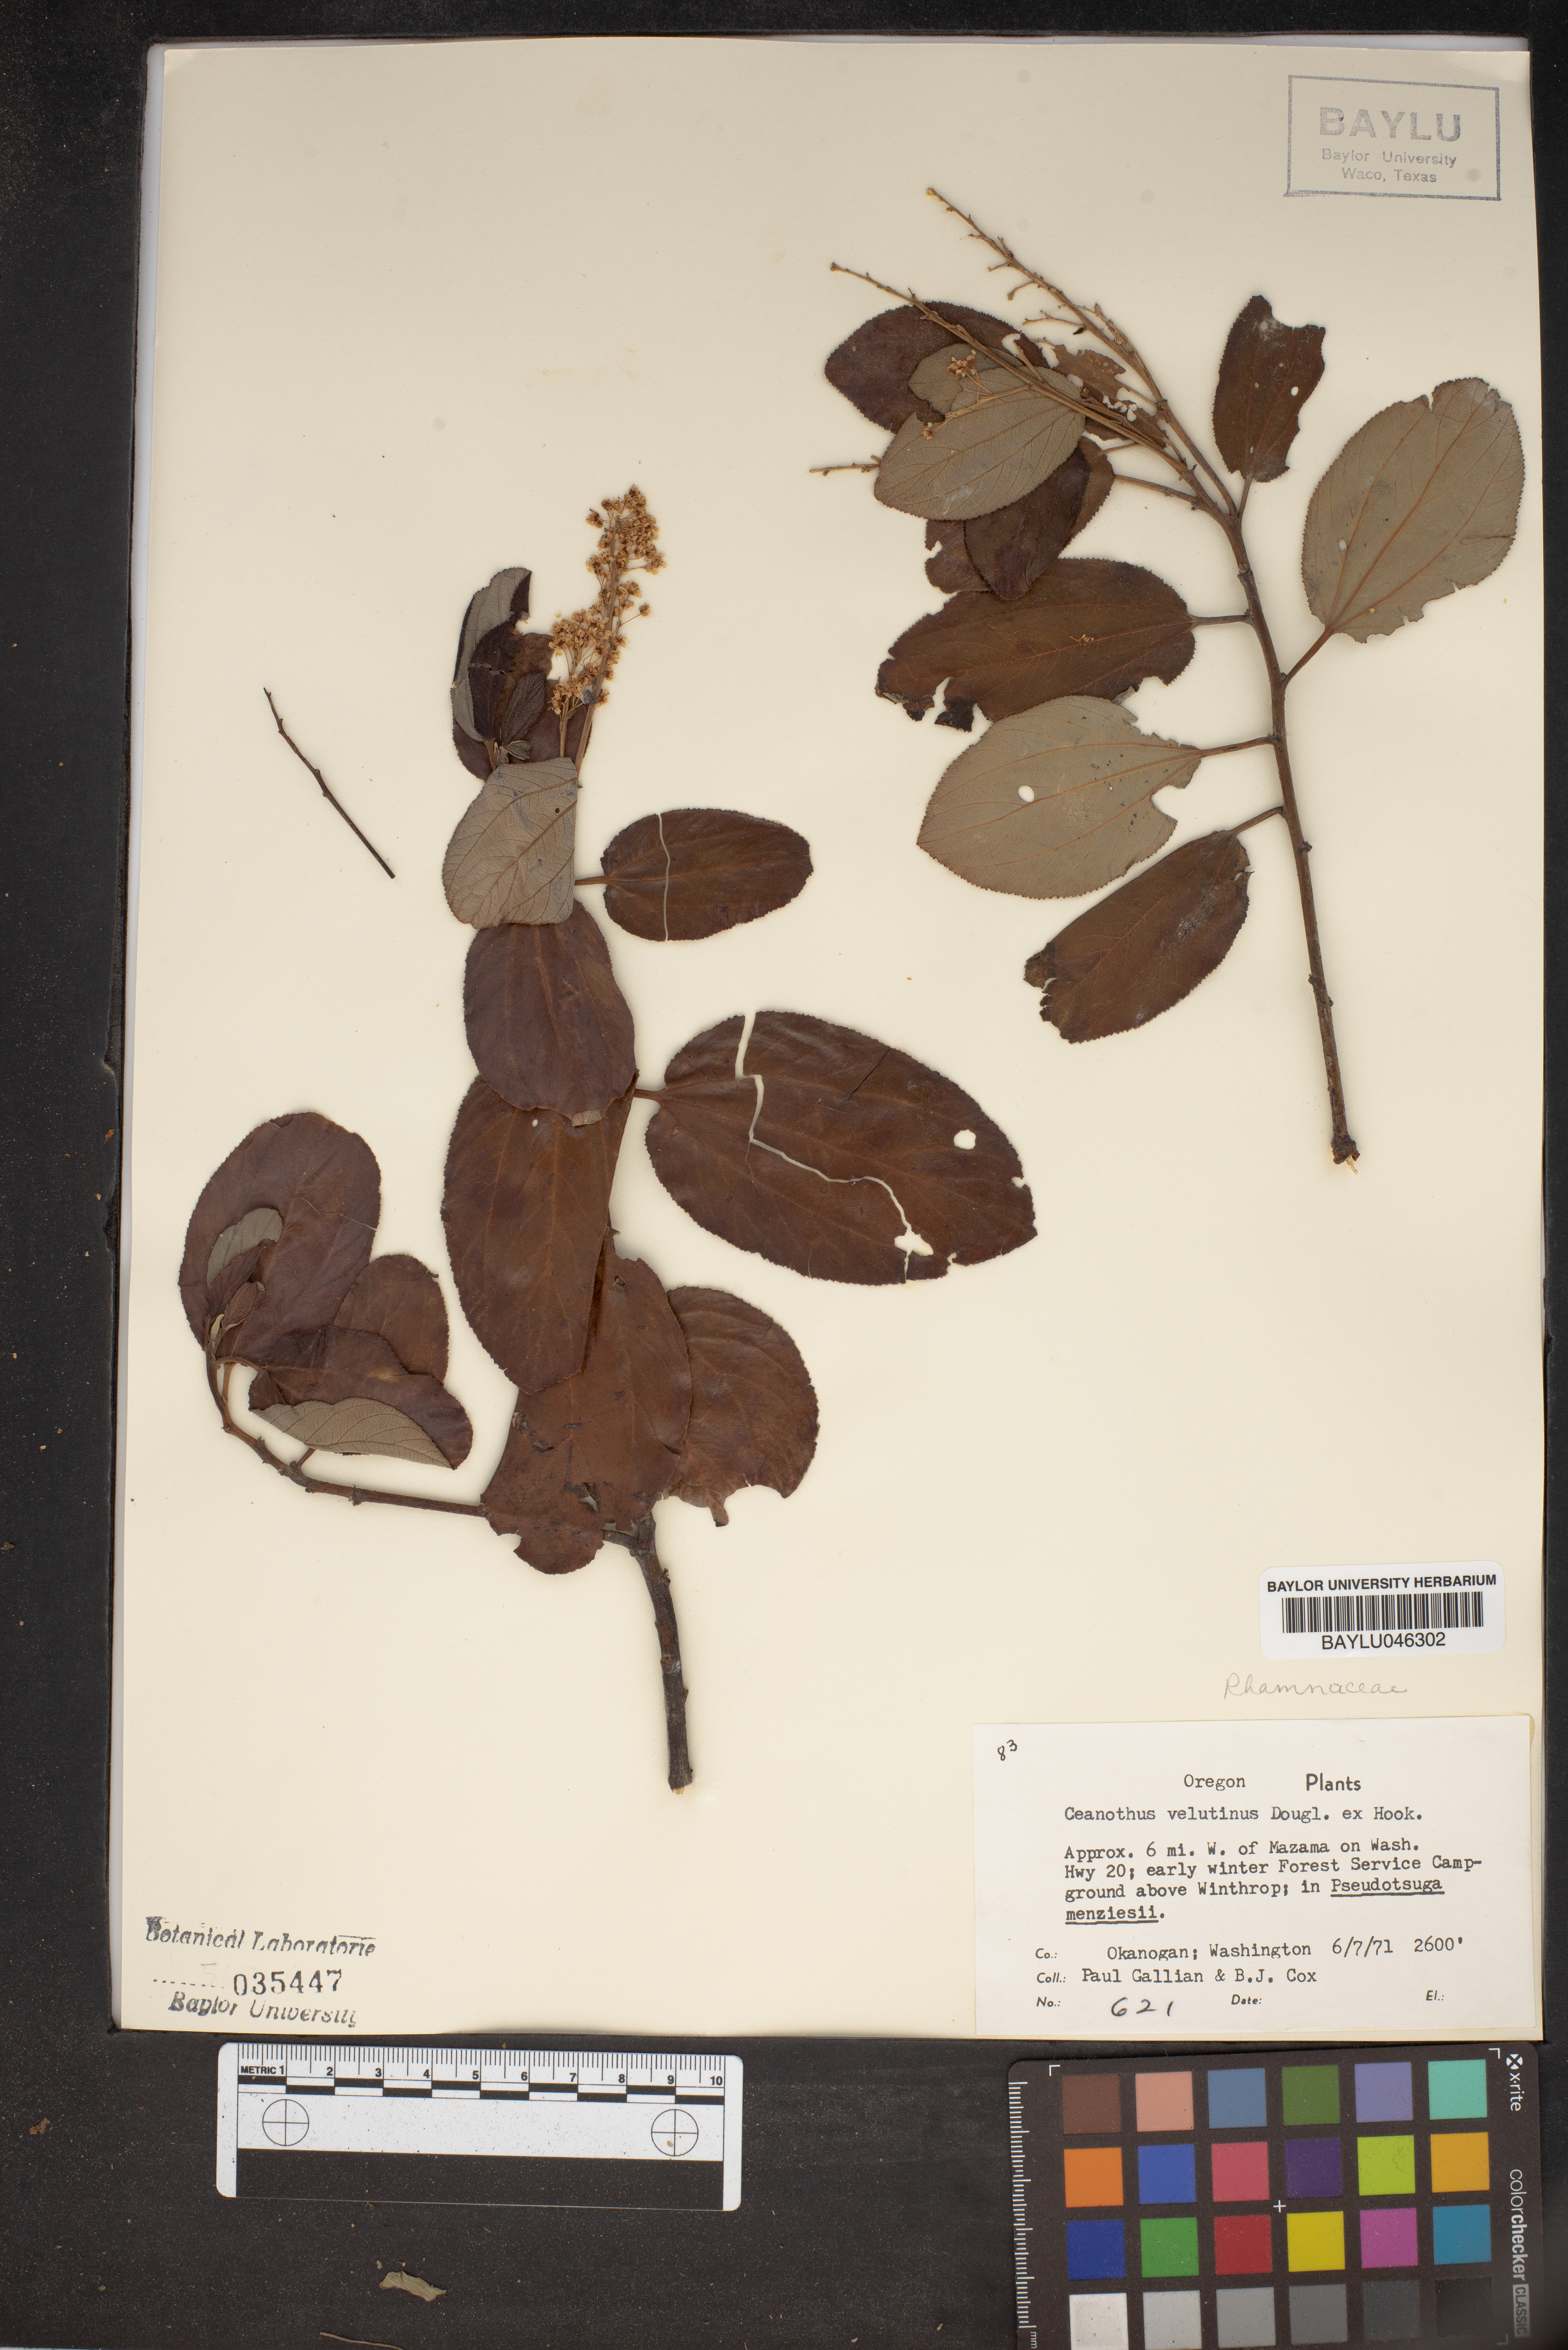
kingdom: Plantae
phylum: Tracheophyta
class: Magnoliopsida
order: Rosales
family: Rhamnaceae
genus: Ceanothus
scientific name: Ceanothus velutinus
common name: Snowbrush
